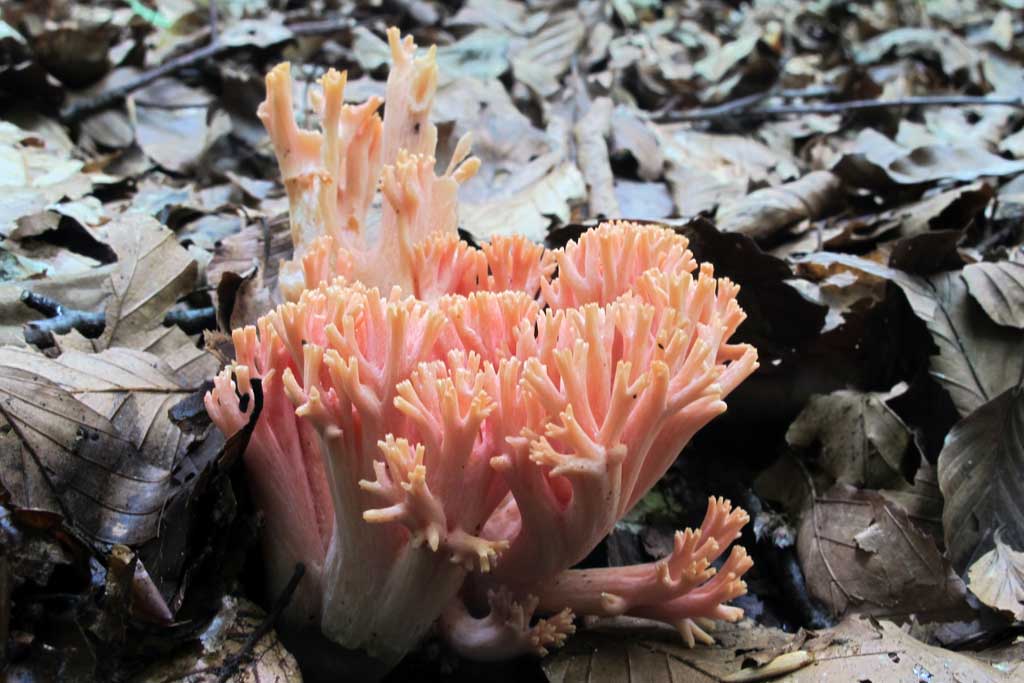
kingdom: Fungi
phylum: Basidiomycota
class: Agaricomycetes
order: Gomphales
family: Gomphaceae
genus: Ramaria
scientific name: Ramaria fagetorum
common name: abrikos-koralsvamp
